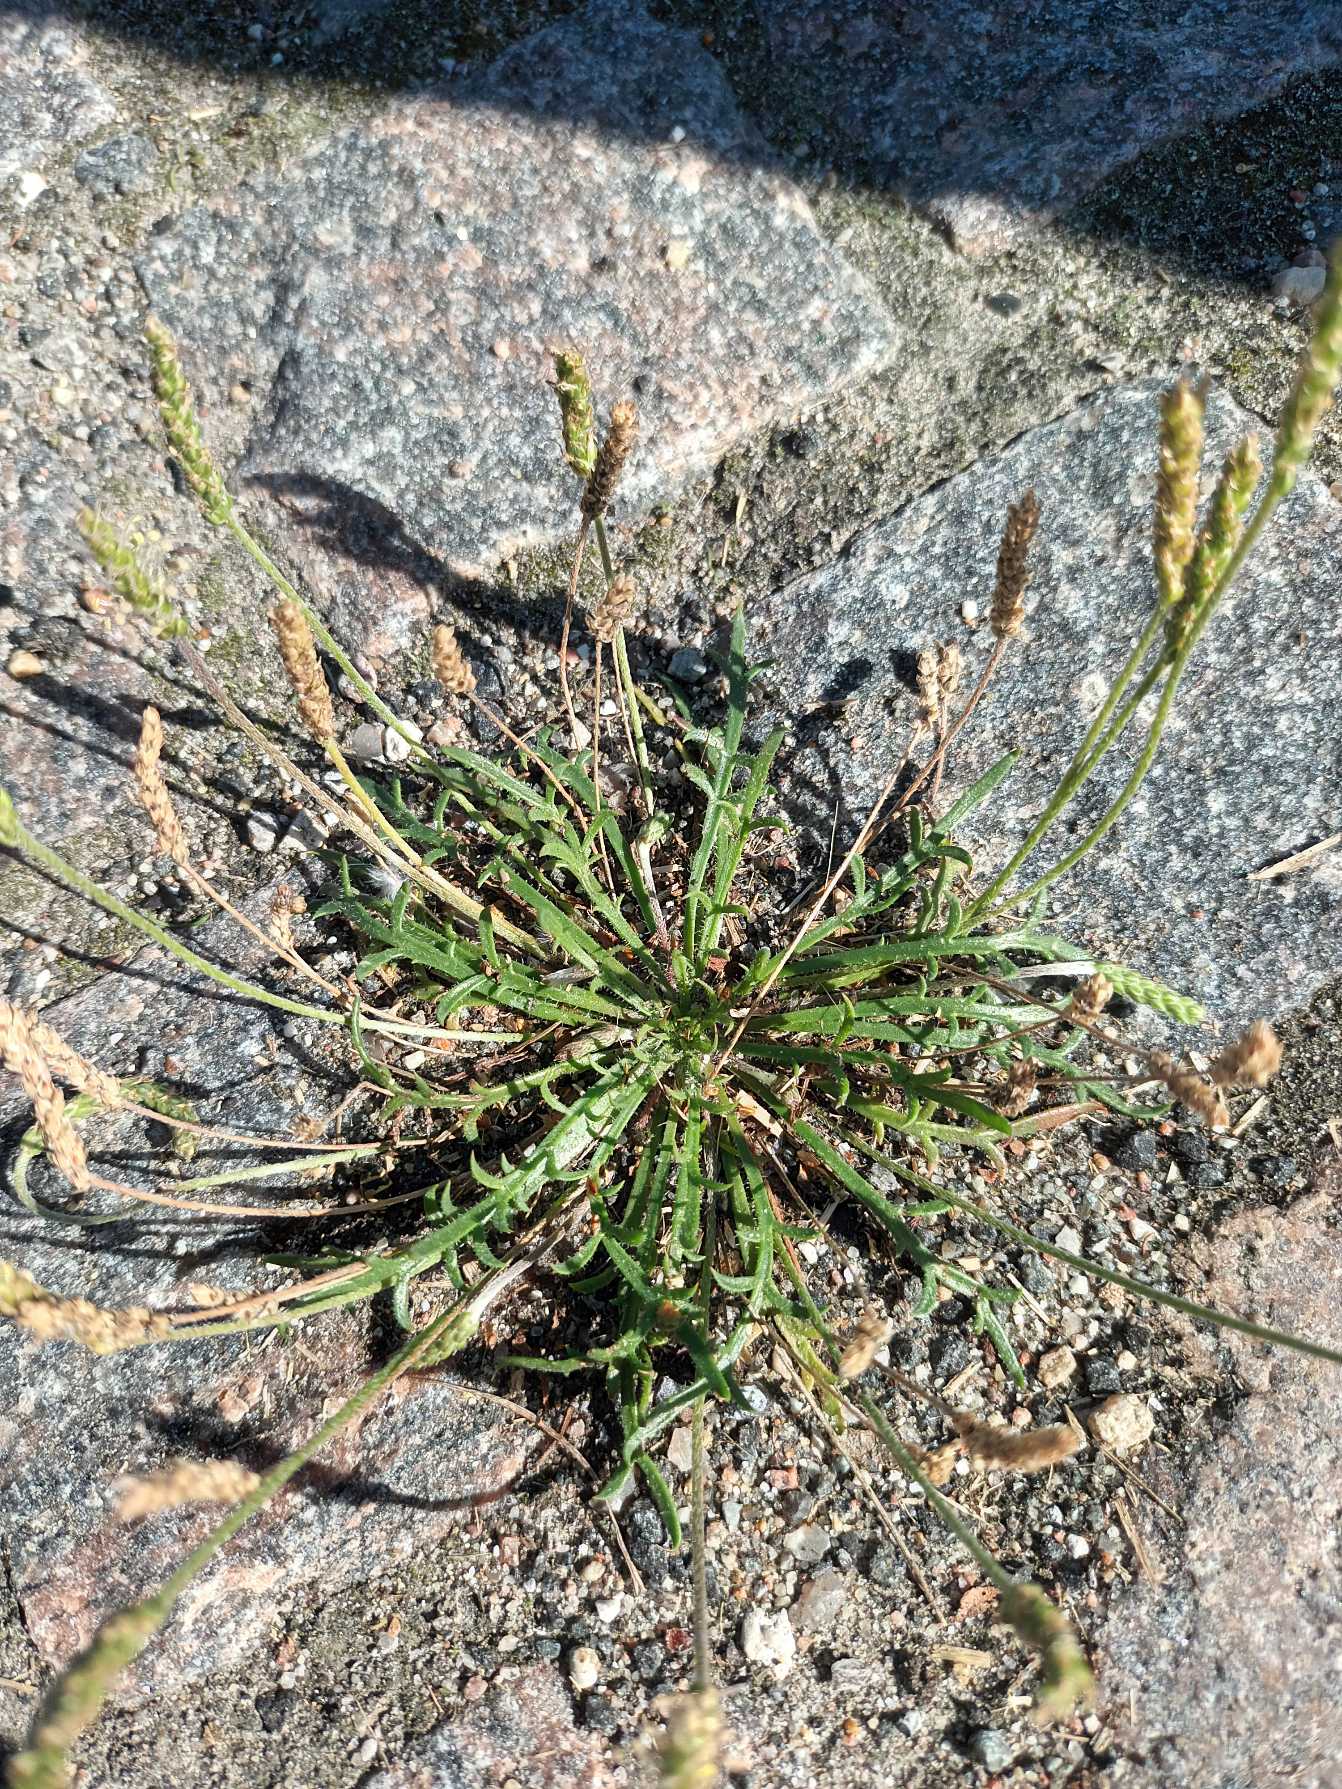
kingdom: Plantae
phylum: Tracheophyta
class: Magnoliopsida
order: Lamiales
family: Plantaginaceae
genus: Plantago
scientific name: Plantago coronopus
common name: Fliget vejbred
